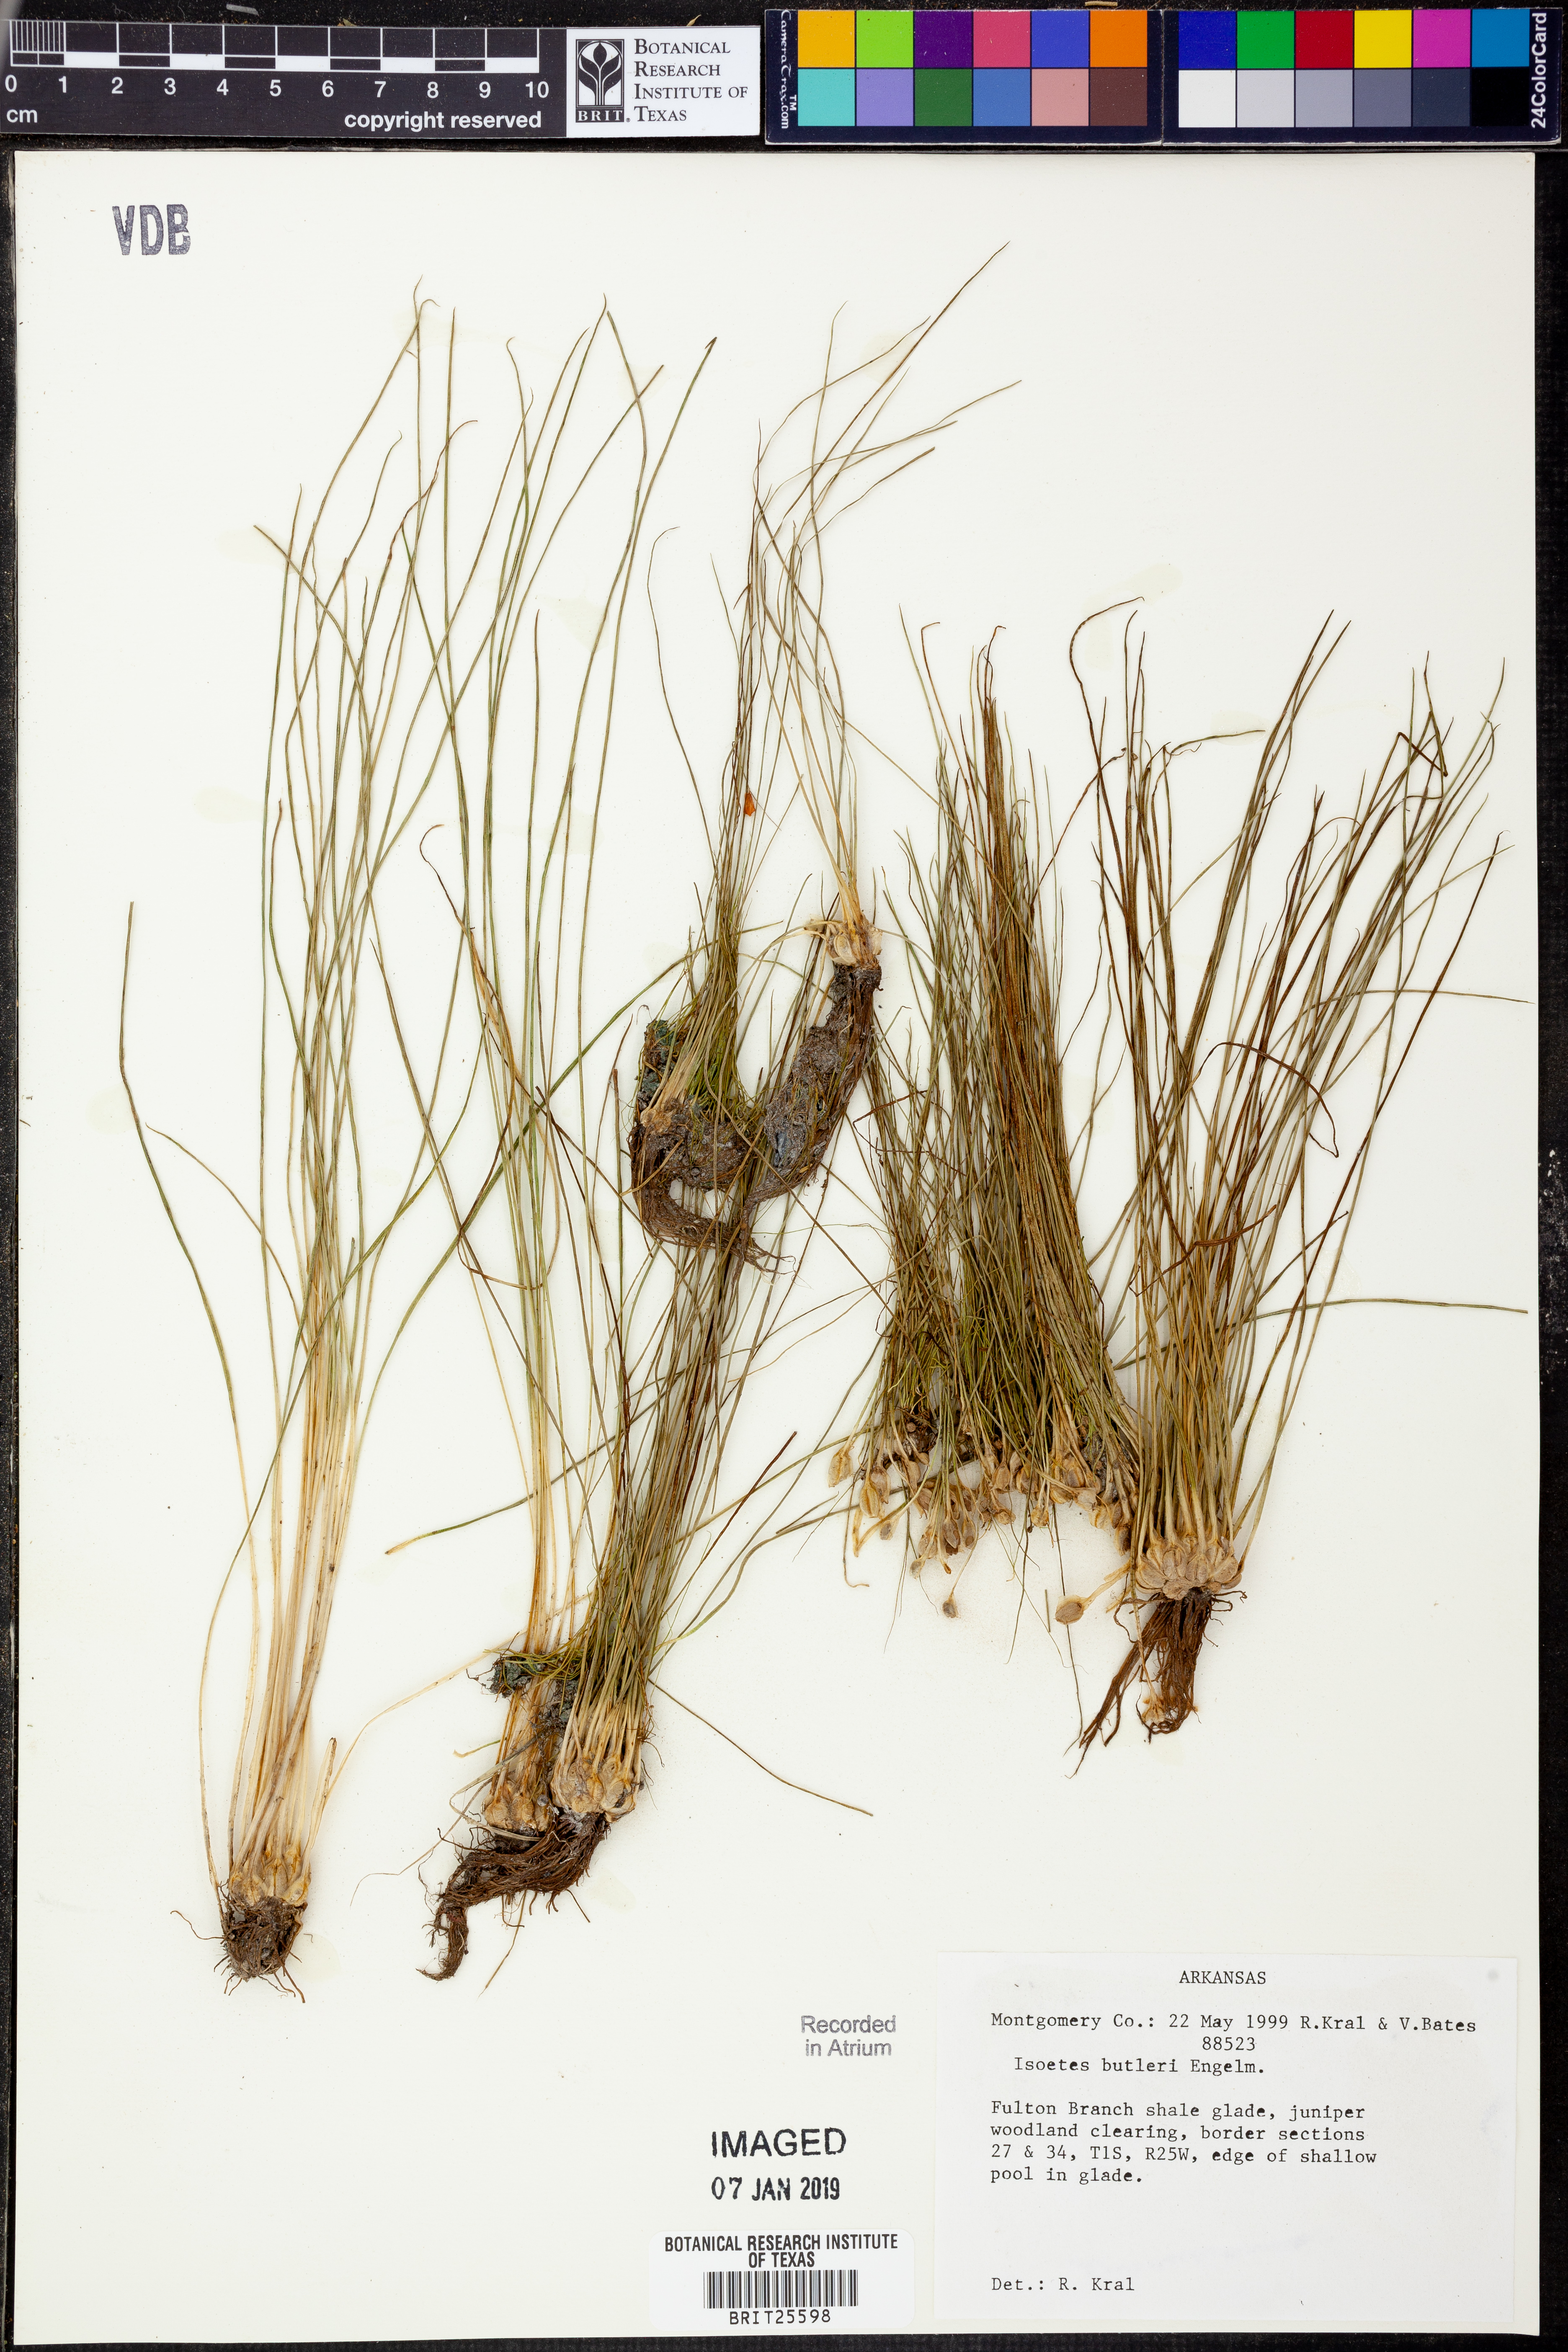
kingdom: Plantae
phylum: Tracheophyta
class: Lycopodiopsida
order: Isoetales
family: Isoetaceae
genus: Isoetes
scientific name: Isoetes butleri
